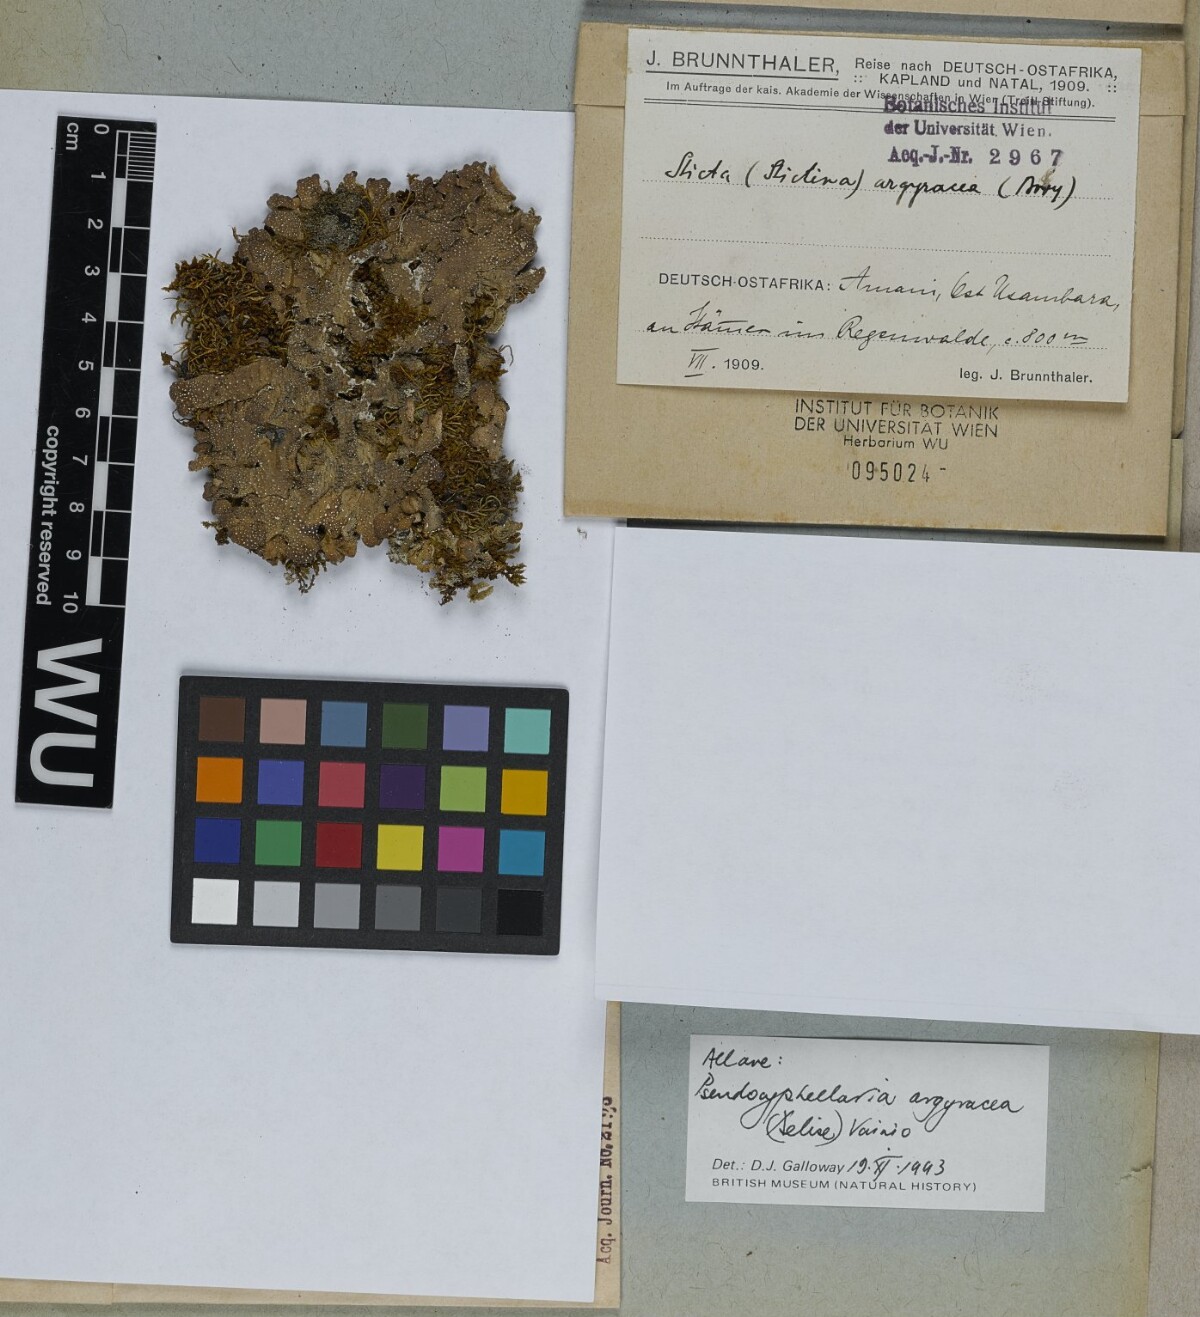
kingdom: Fungi
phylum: Ascomycota
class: Lecanoromycetes
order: Peltigerales
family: Lobariaceae
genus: Pseudocyphellaria
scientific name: Pseudocyphellaria argyracea
